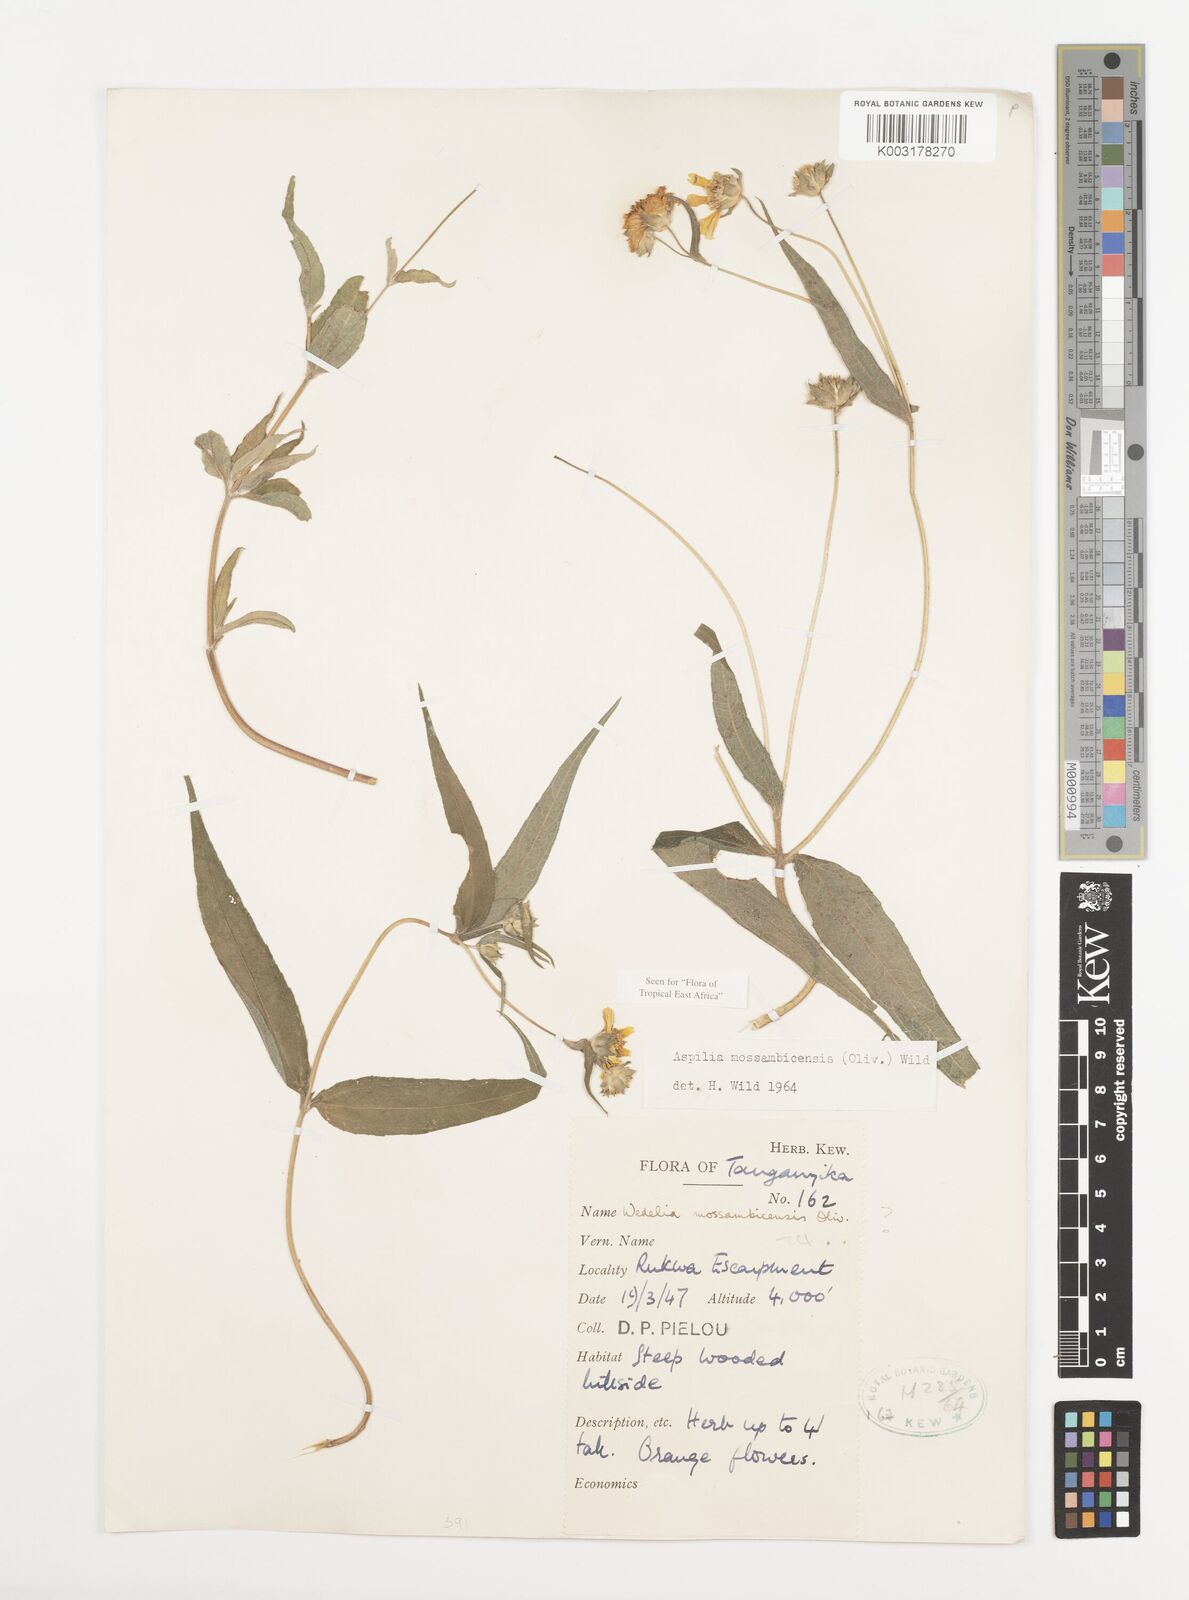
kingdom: Plantae
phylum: Tracheophyta
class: Magnoliopsida
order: Asterales
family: Asteraceae
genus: Aspilia
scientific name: Aspilia mossambicensis
